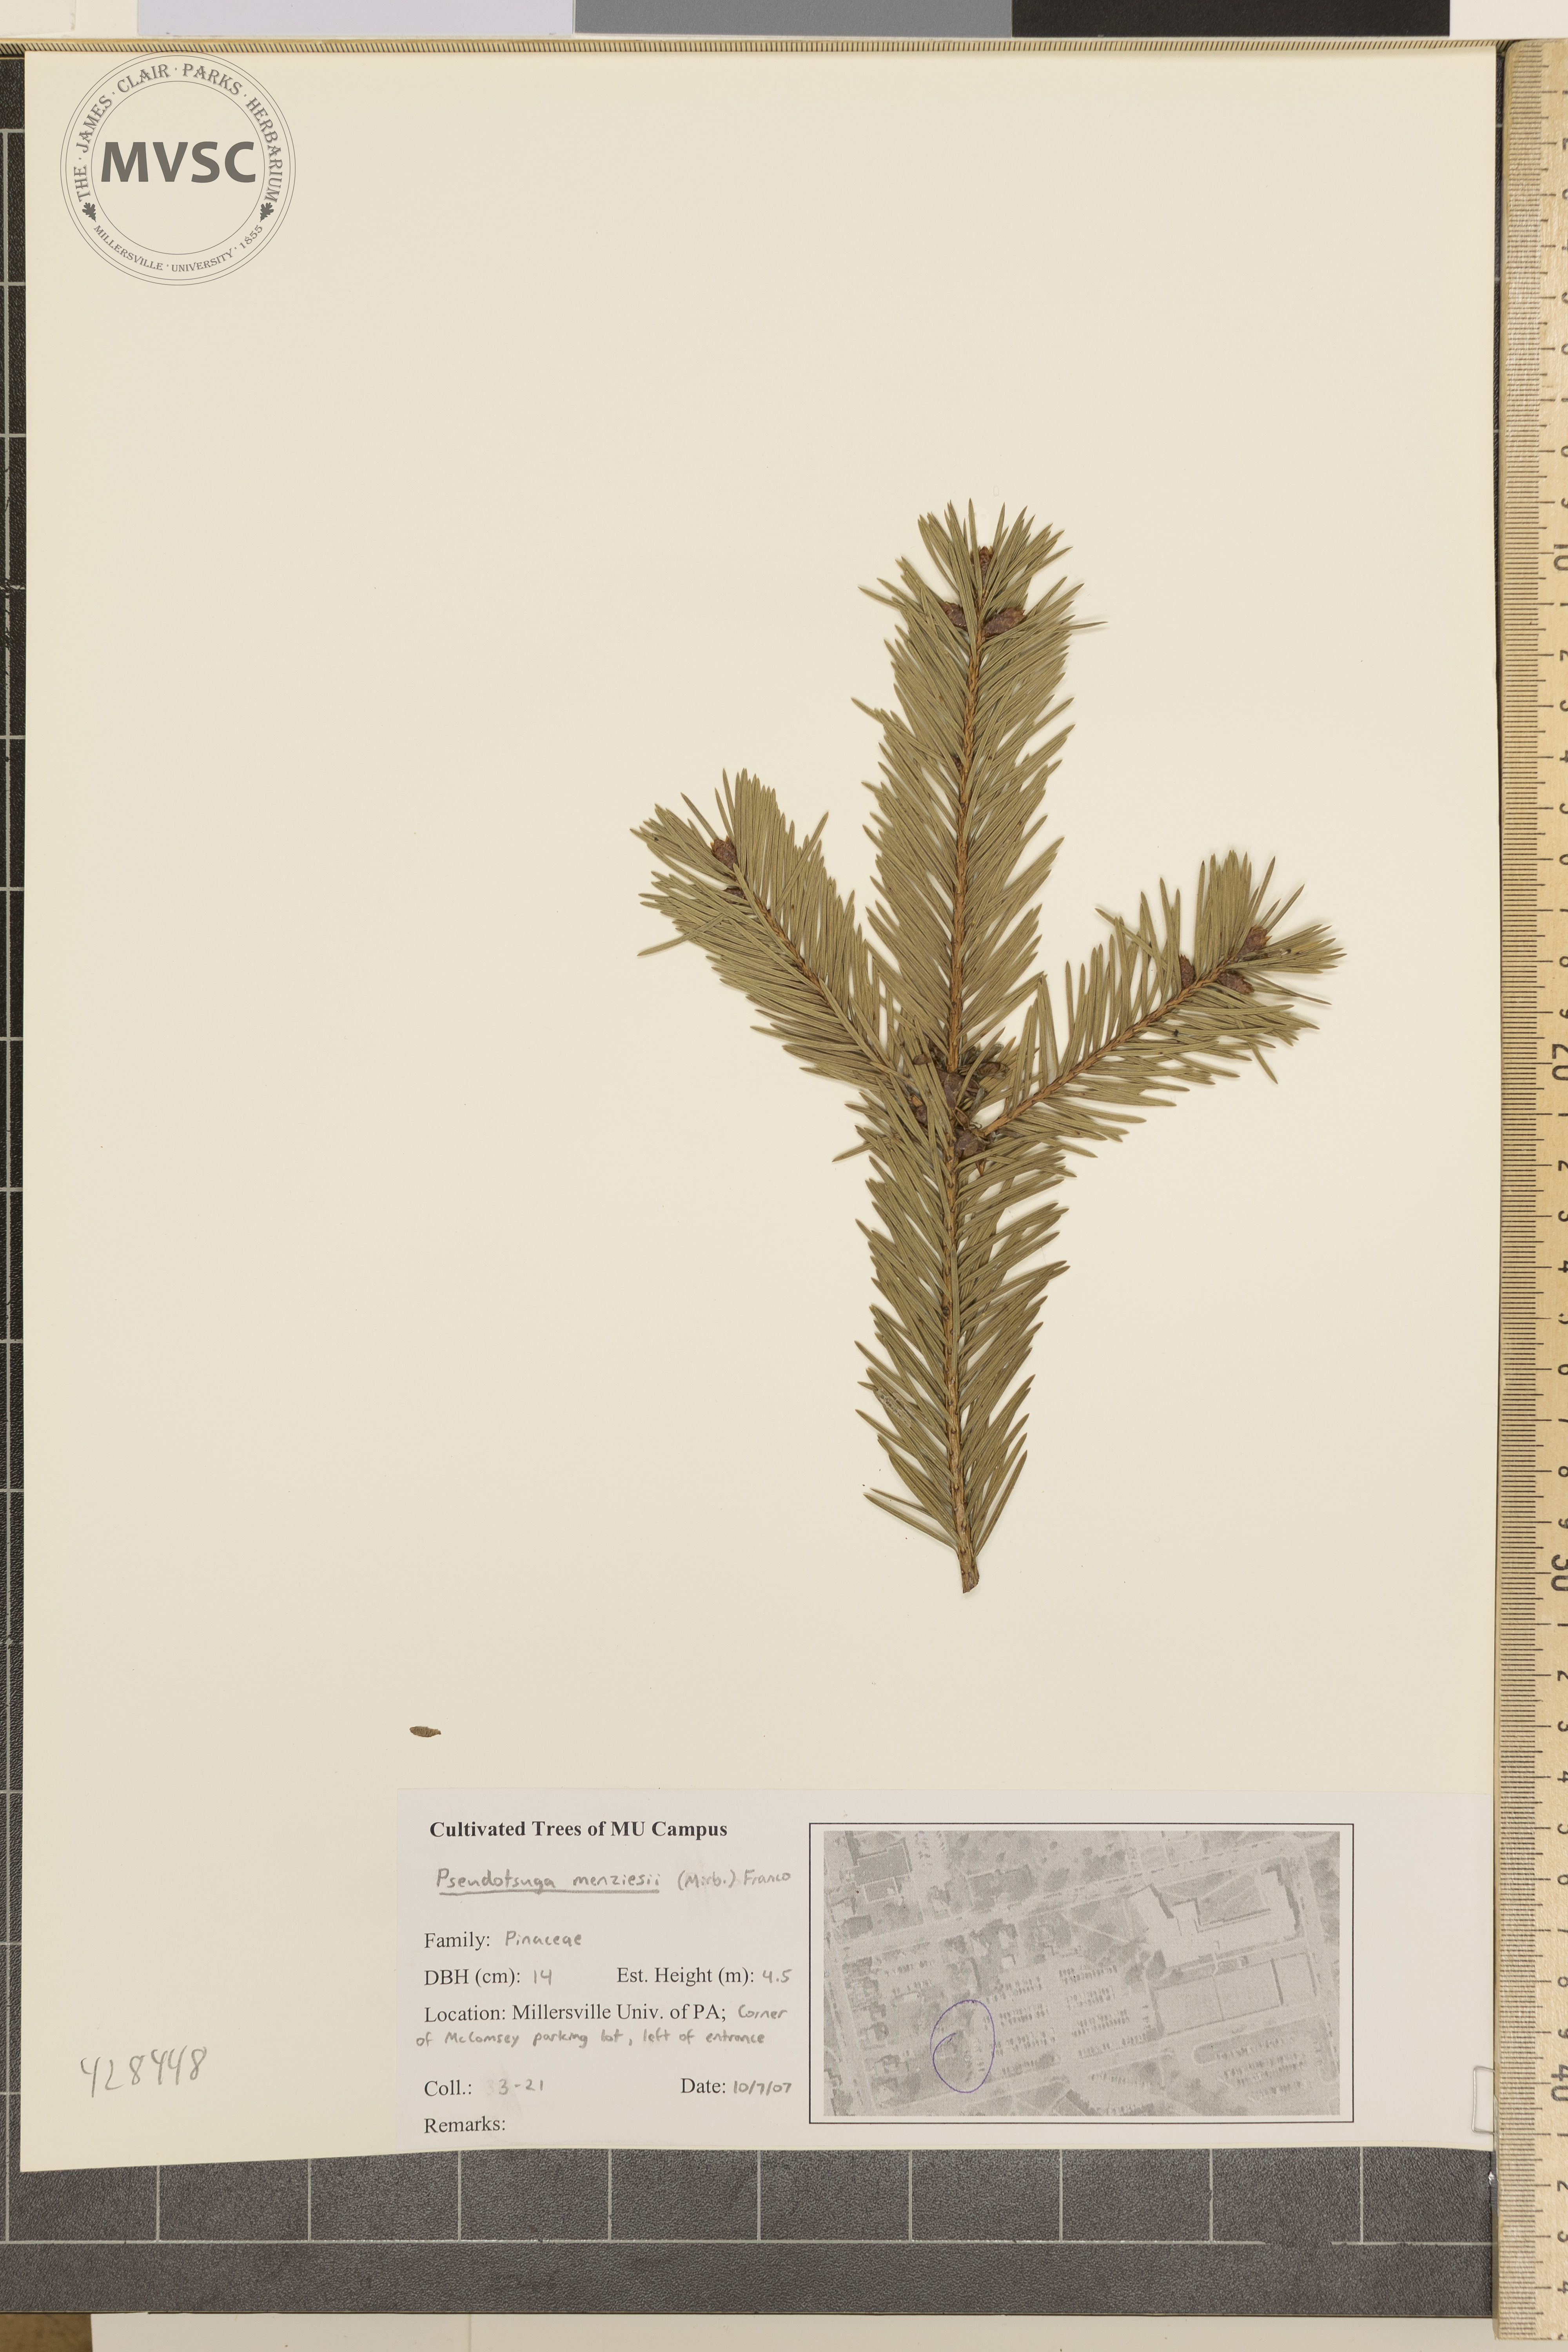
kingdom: Plantae
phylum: Tracheophyta
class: Pinopsida
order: Pinales
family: Pinaceae
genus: Pseudotsuga
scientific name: Pseudotsuga menziesii
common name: Douglas-fir
